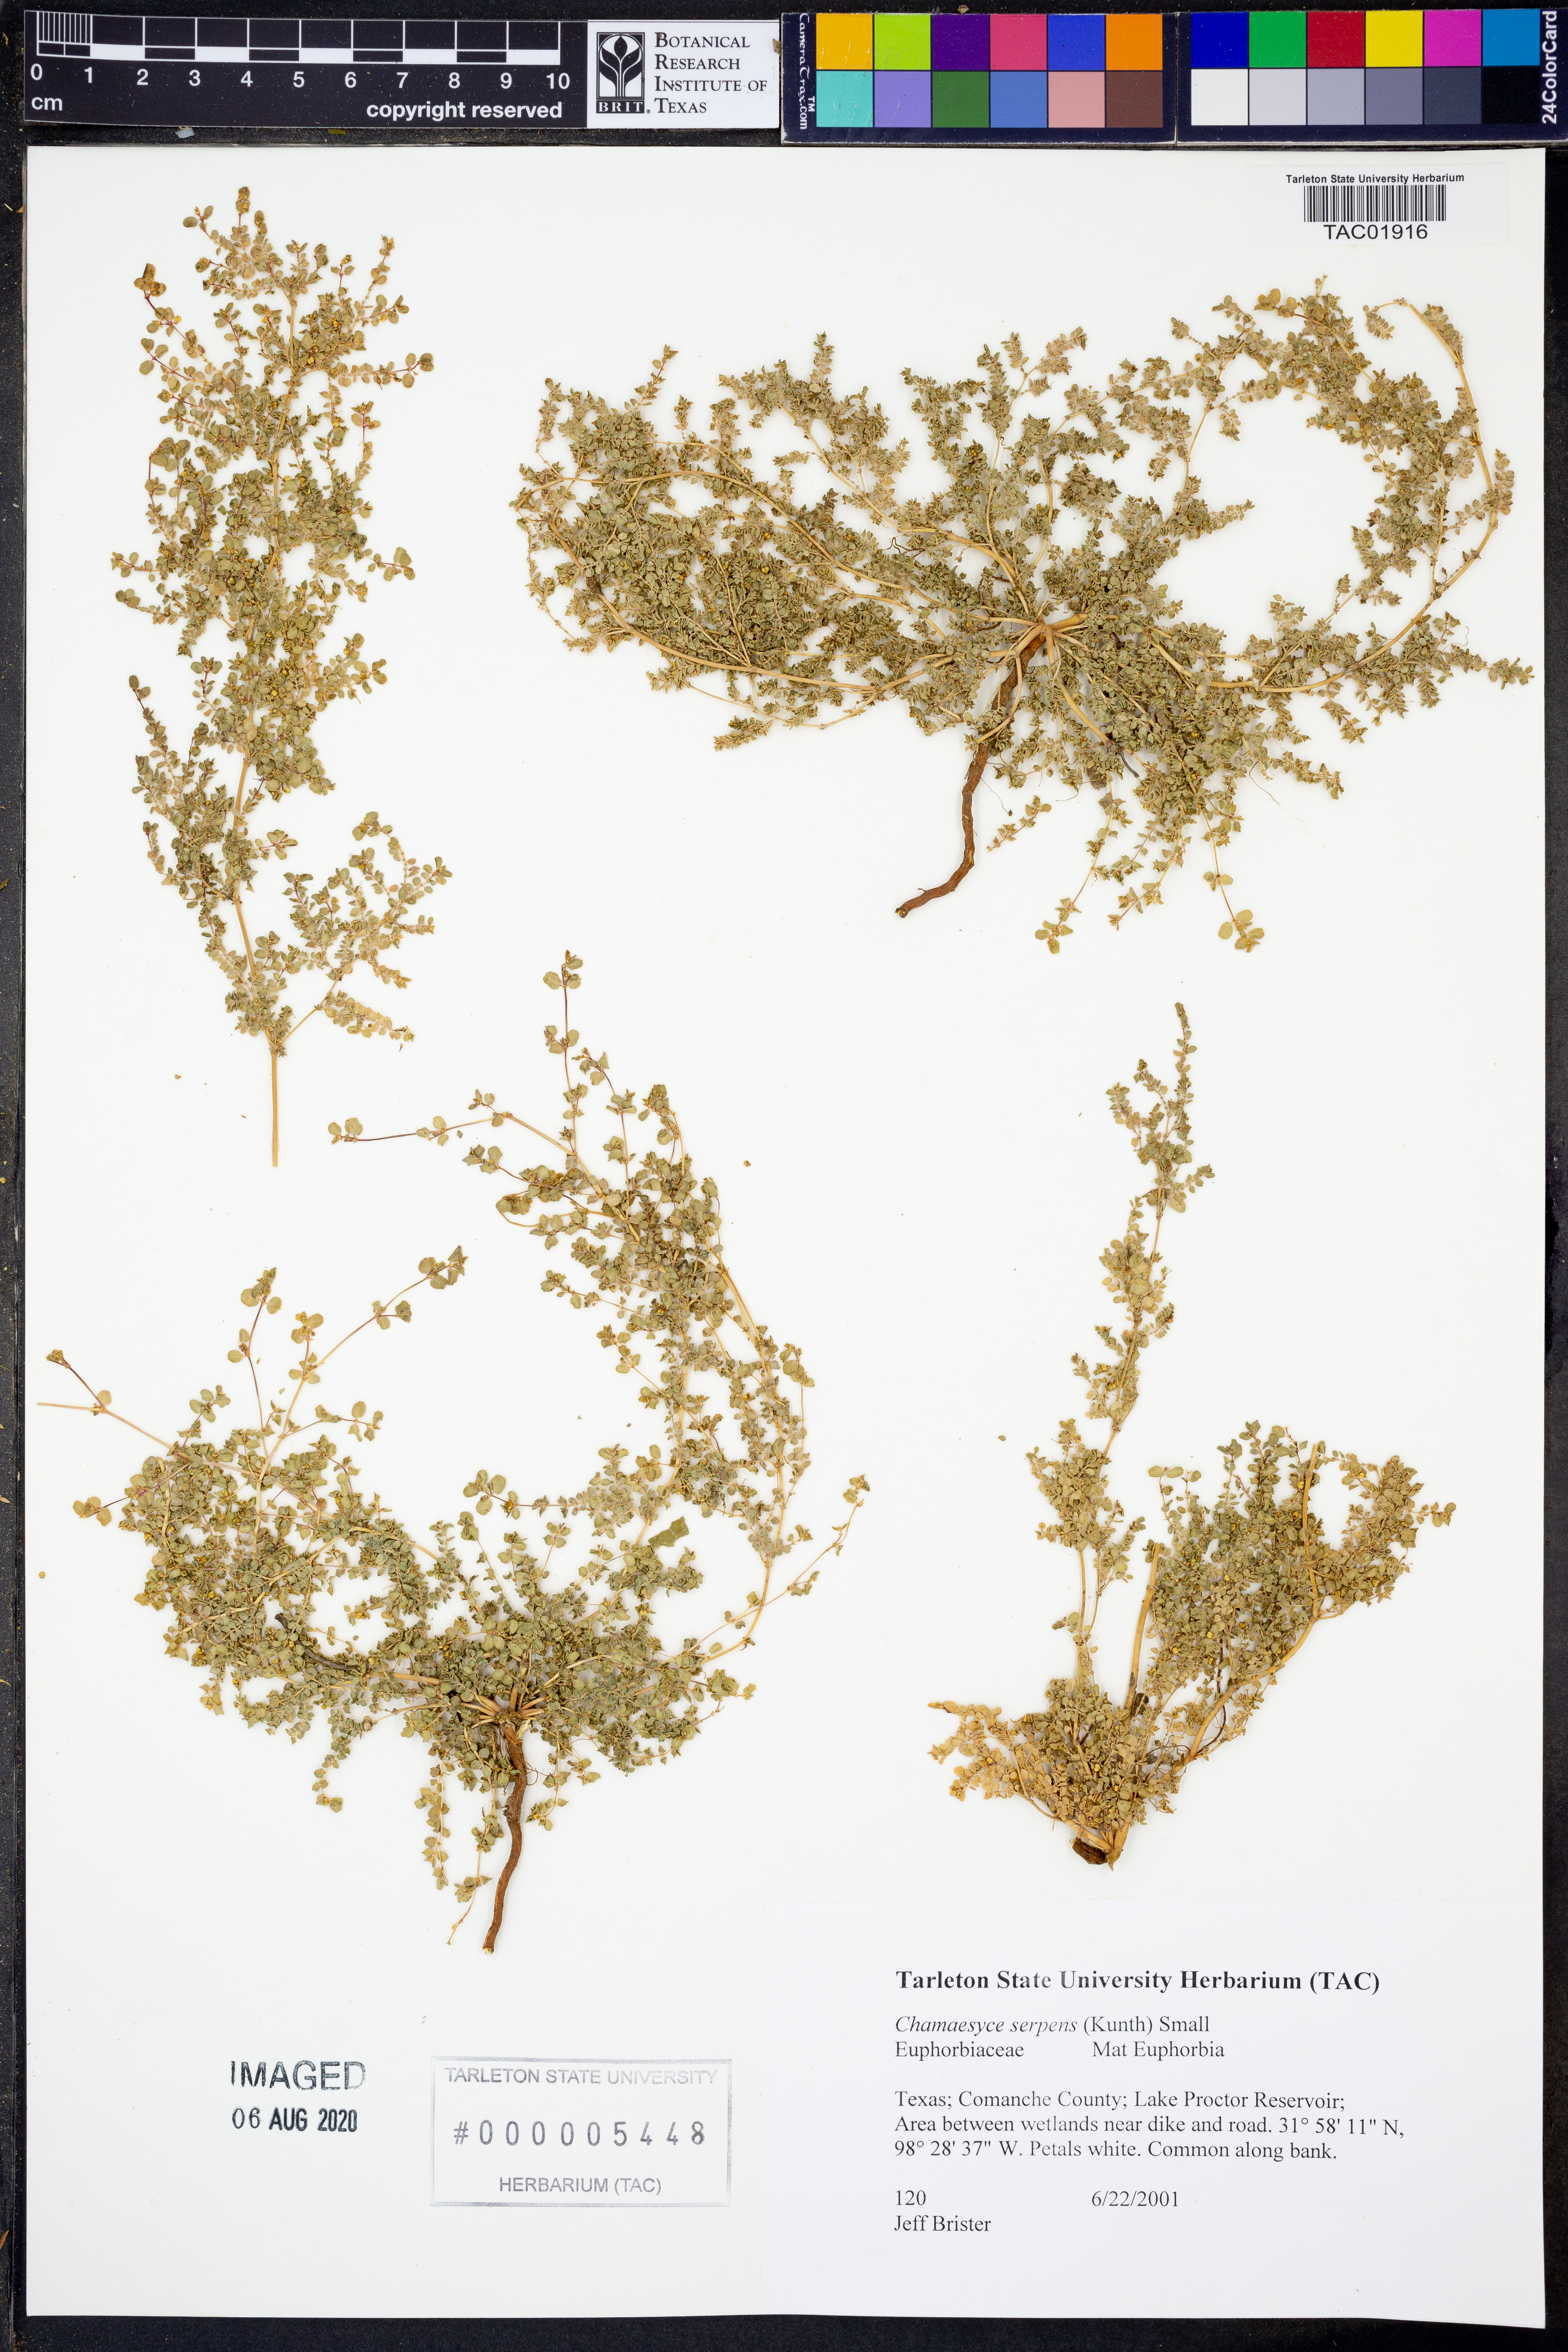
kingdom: Plantae
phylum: Tracheophyta
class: Magnoliopsida
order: Malpighiales
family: Euphorbiaceae
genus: Euphorbia
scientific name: Euphorbia serpens
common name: Matted sandmat
